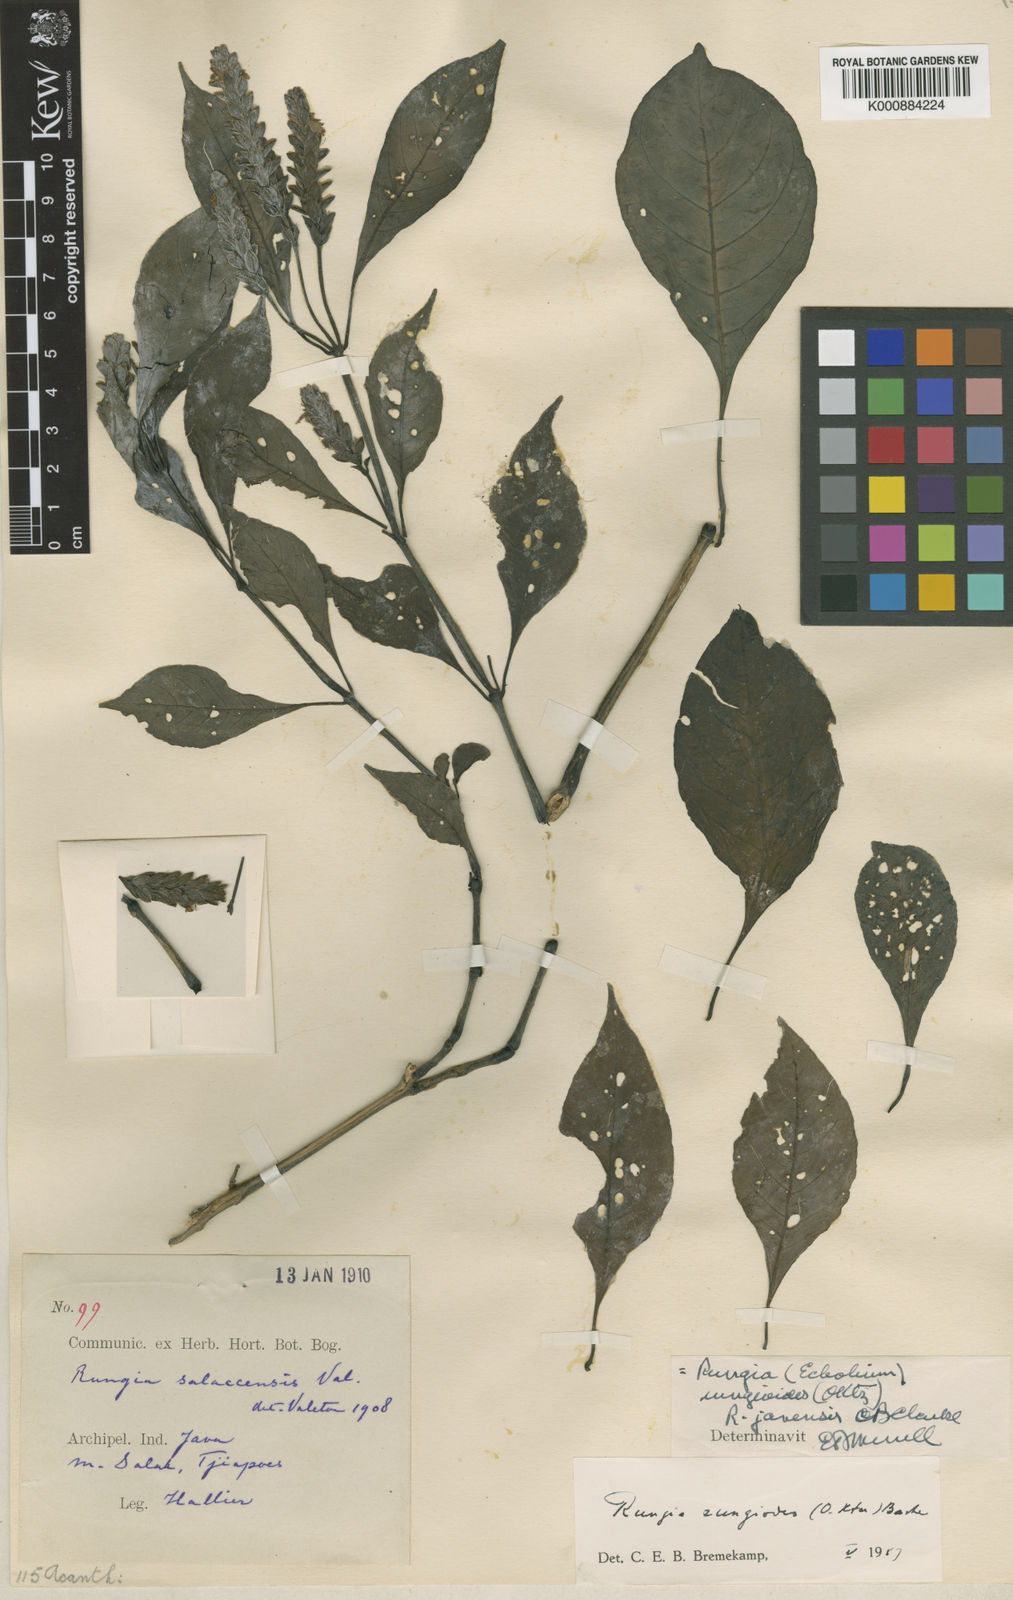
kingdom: Plantae
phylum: Tracheophyta
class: Magnoliopsida
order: Lamiales
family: Acanthaceae
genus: Justicia
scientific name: Justicia
